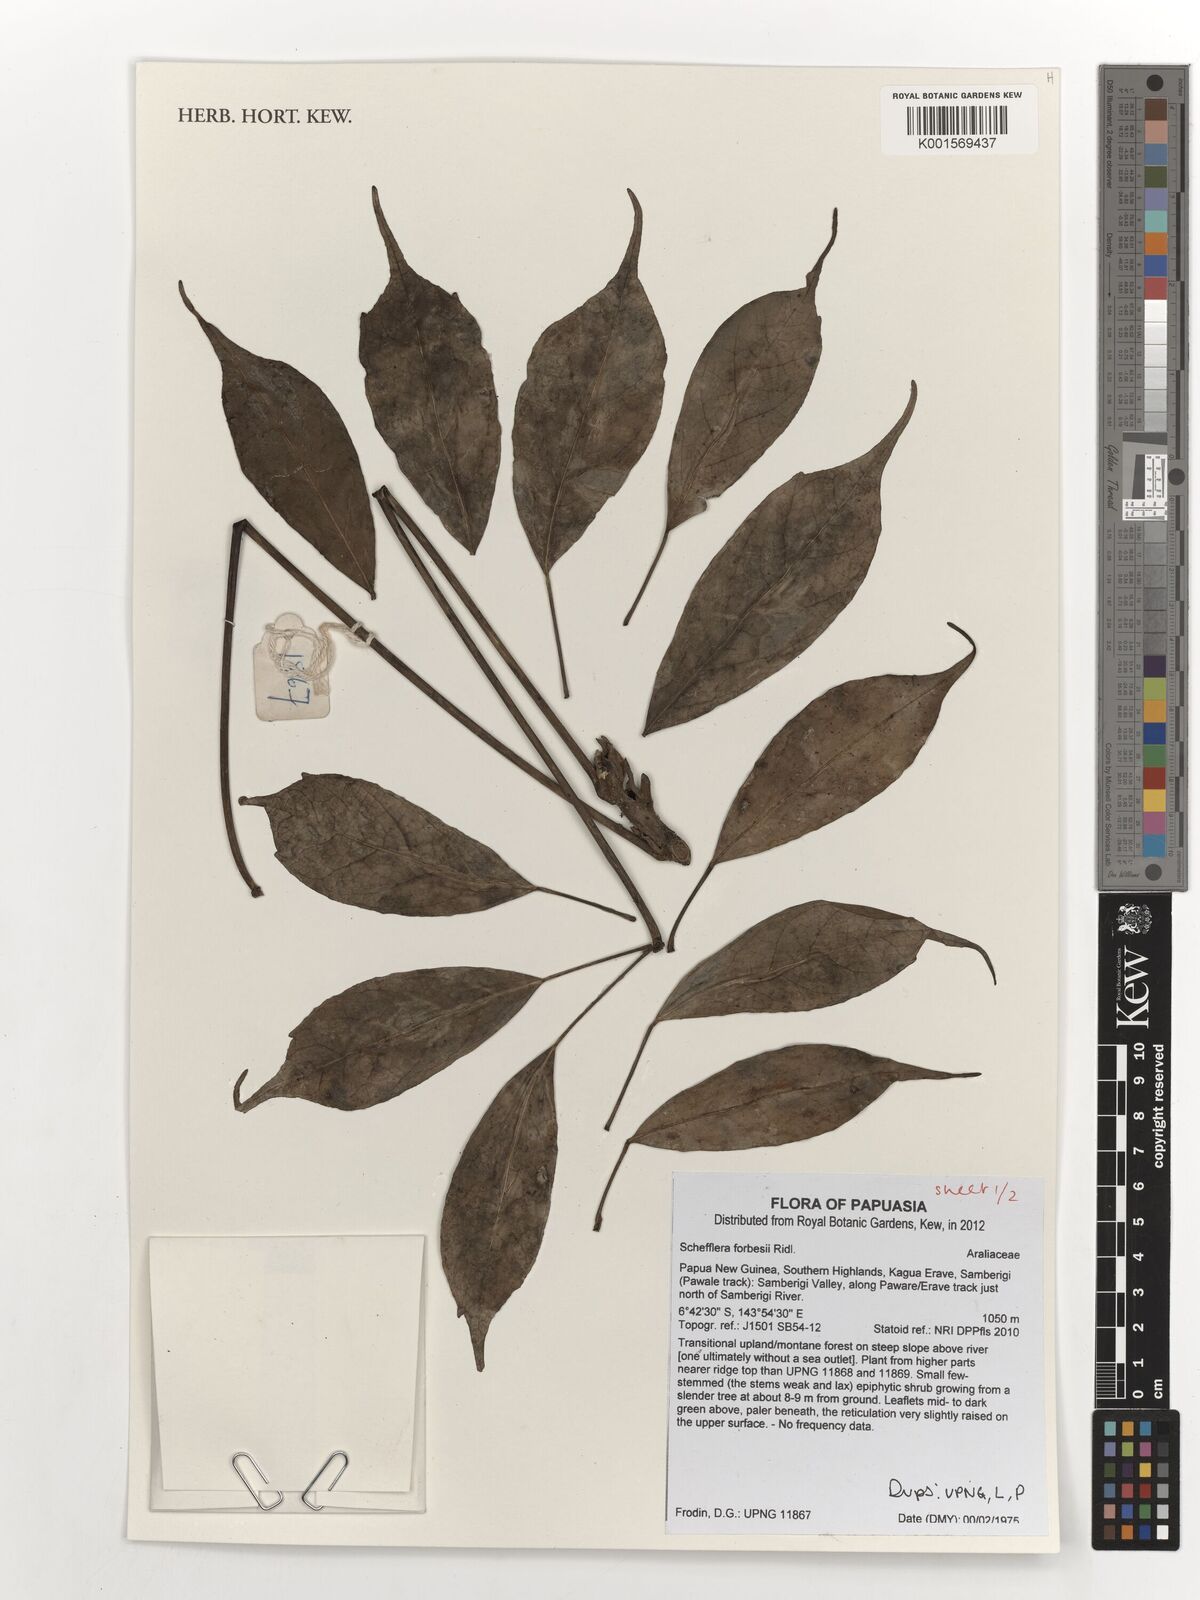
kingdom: Plantae
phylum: Tracheophyta
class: Magnoliopsida
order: Apiales
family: Araliaceae
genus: Heptapleurum
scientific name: Heptapleurum forbesii
